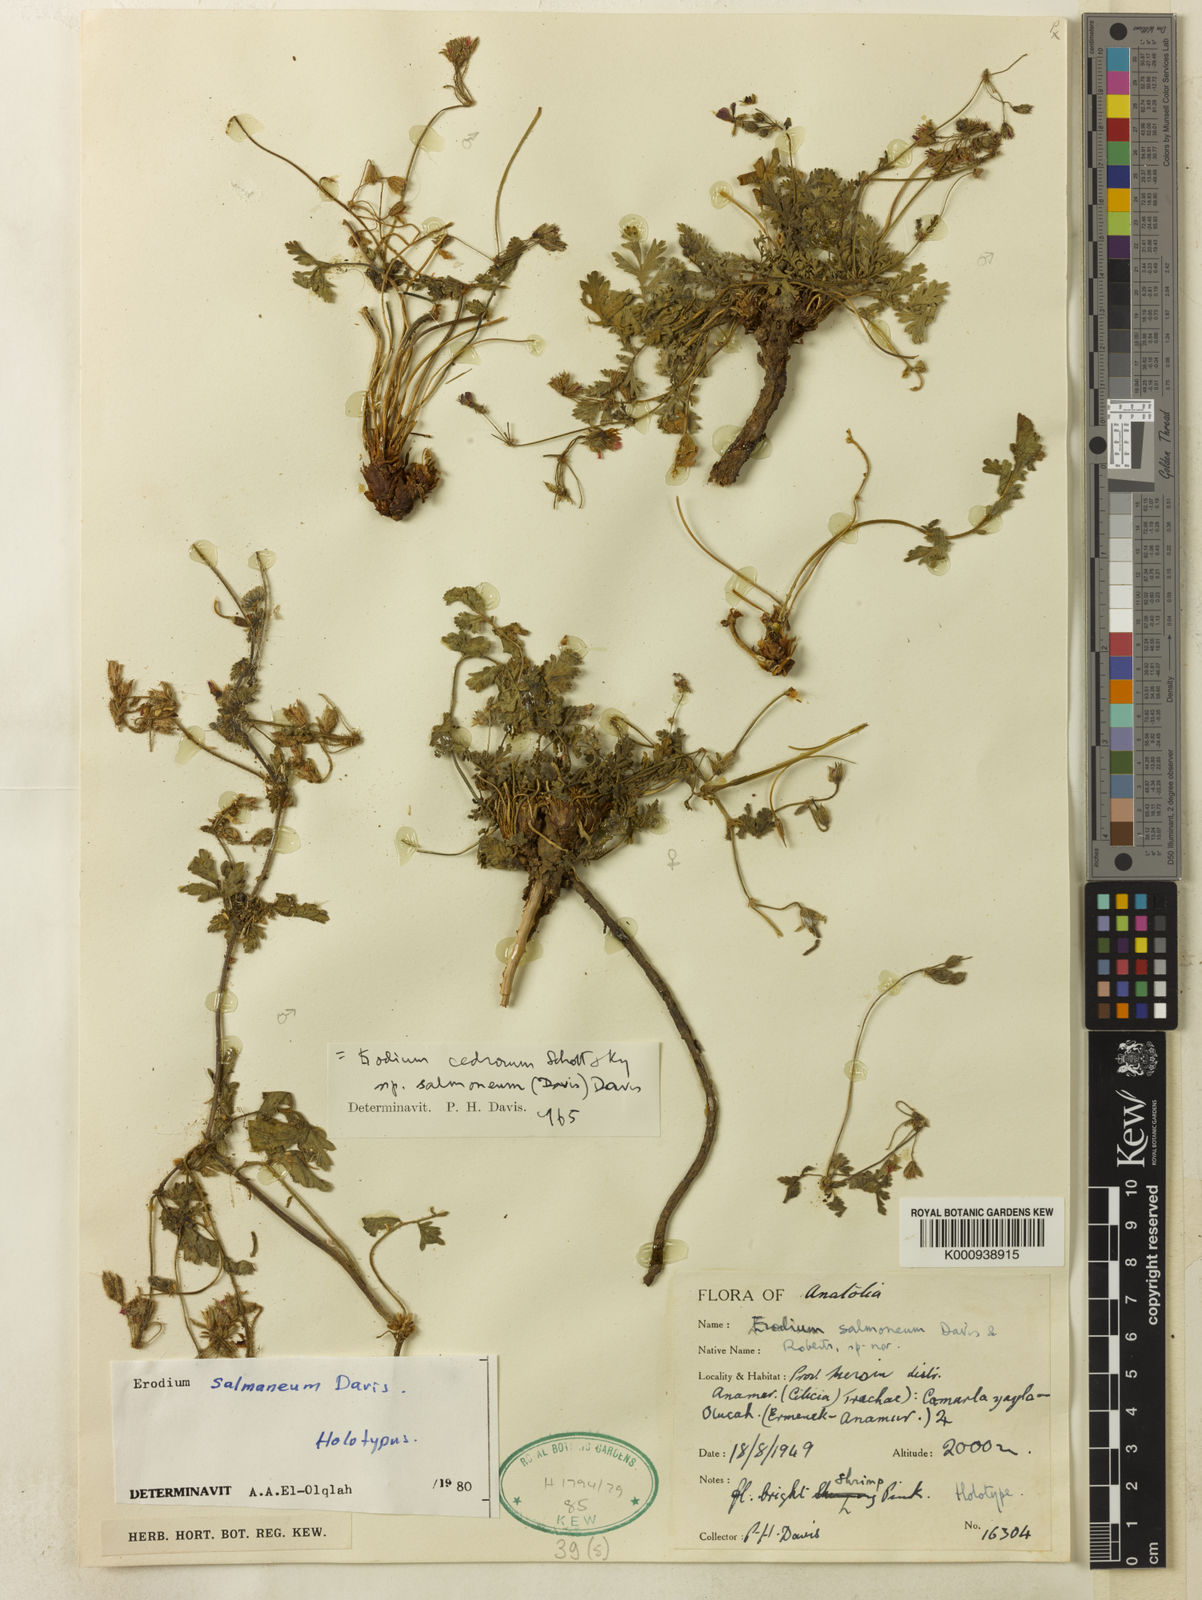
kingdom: Plantae
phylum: Tracheophyta
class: Magnoliopsida
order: Geraniales
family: Geraniaceae
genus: Erodium
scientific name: Erodium cedrorum
